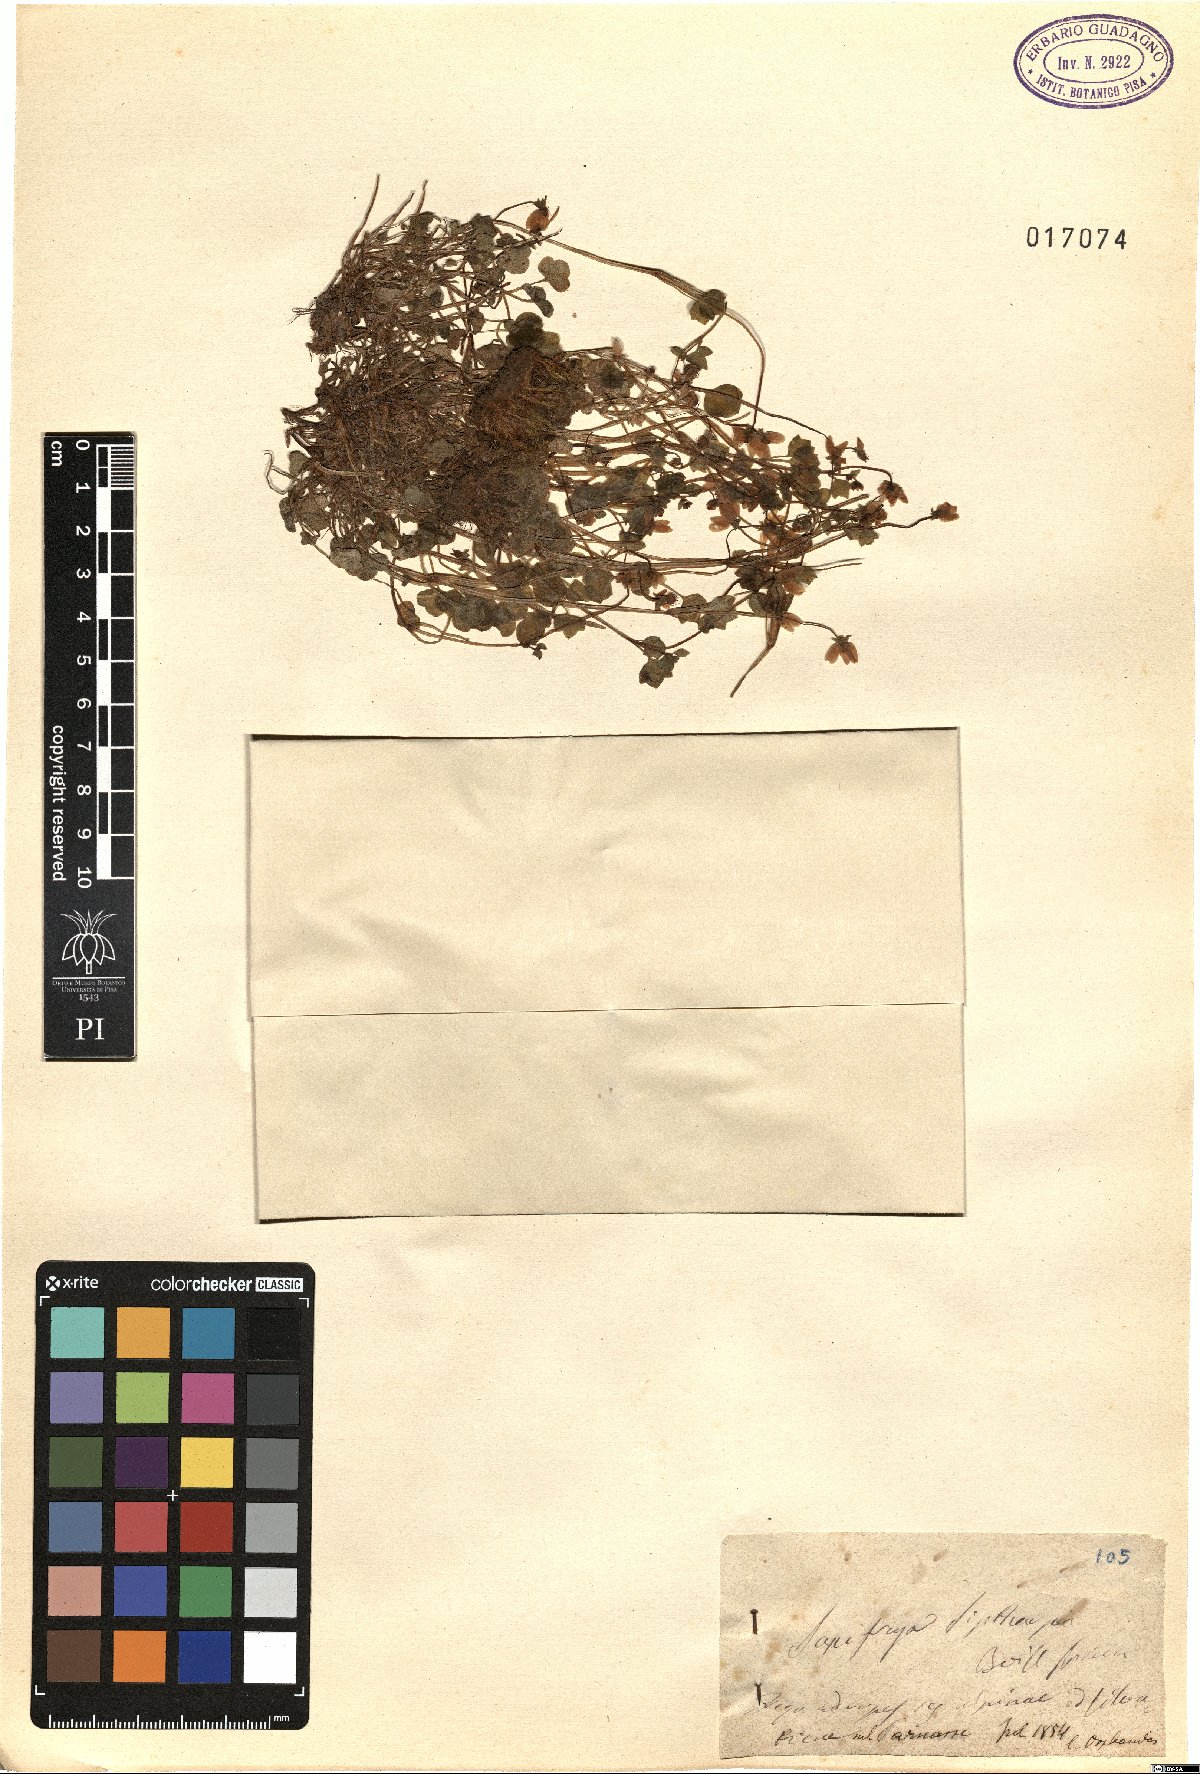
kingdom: Plantae
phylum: Tracheophyta
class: Magnoliopsida
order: Saxifragales
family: Saxifragaceae
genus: Saxifraga
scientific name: Saxifraga sibthorpii
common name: Yellow saxifrage
